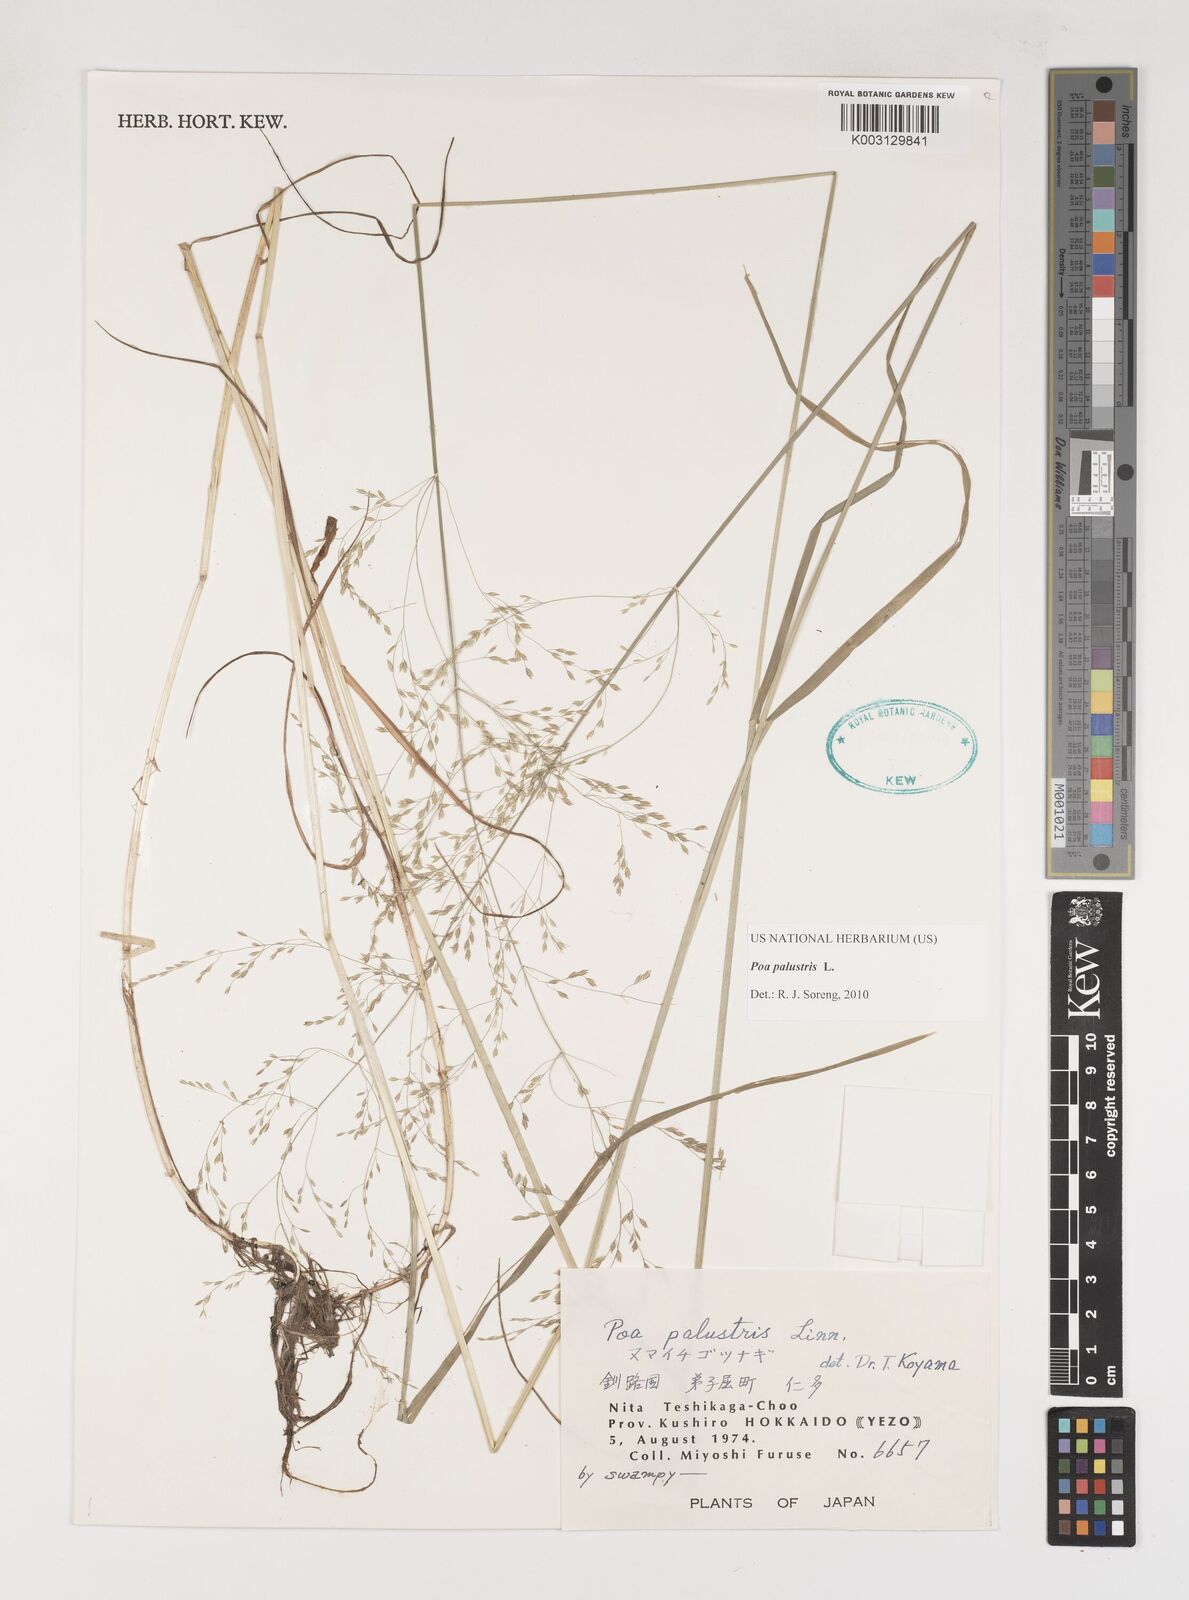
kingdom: Plantae
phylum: Tracheophyta
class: Liliopsida
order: Poales
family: Poaceae
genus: Poa
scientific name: Poa palustris
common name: Swamp meadow-grass
